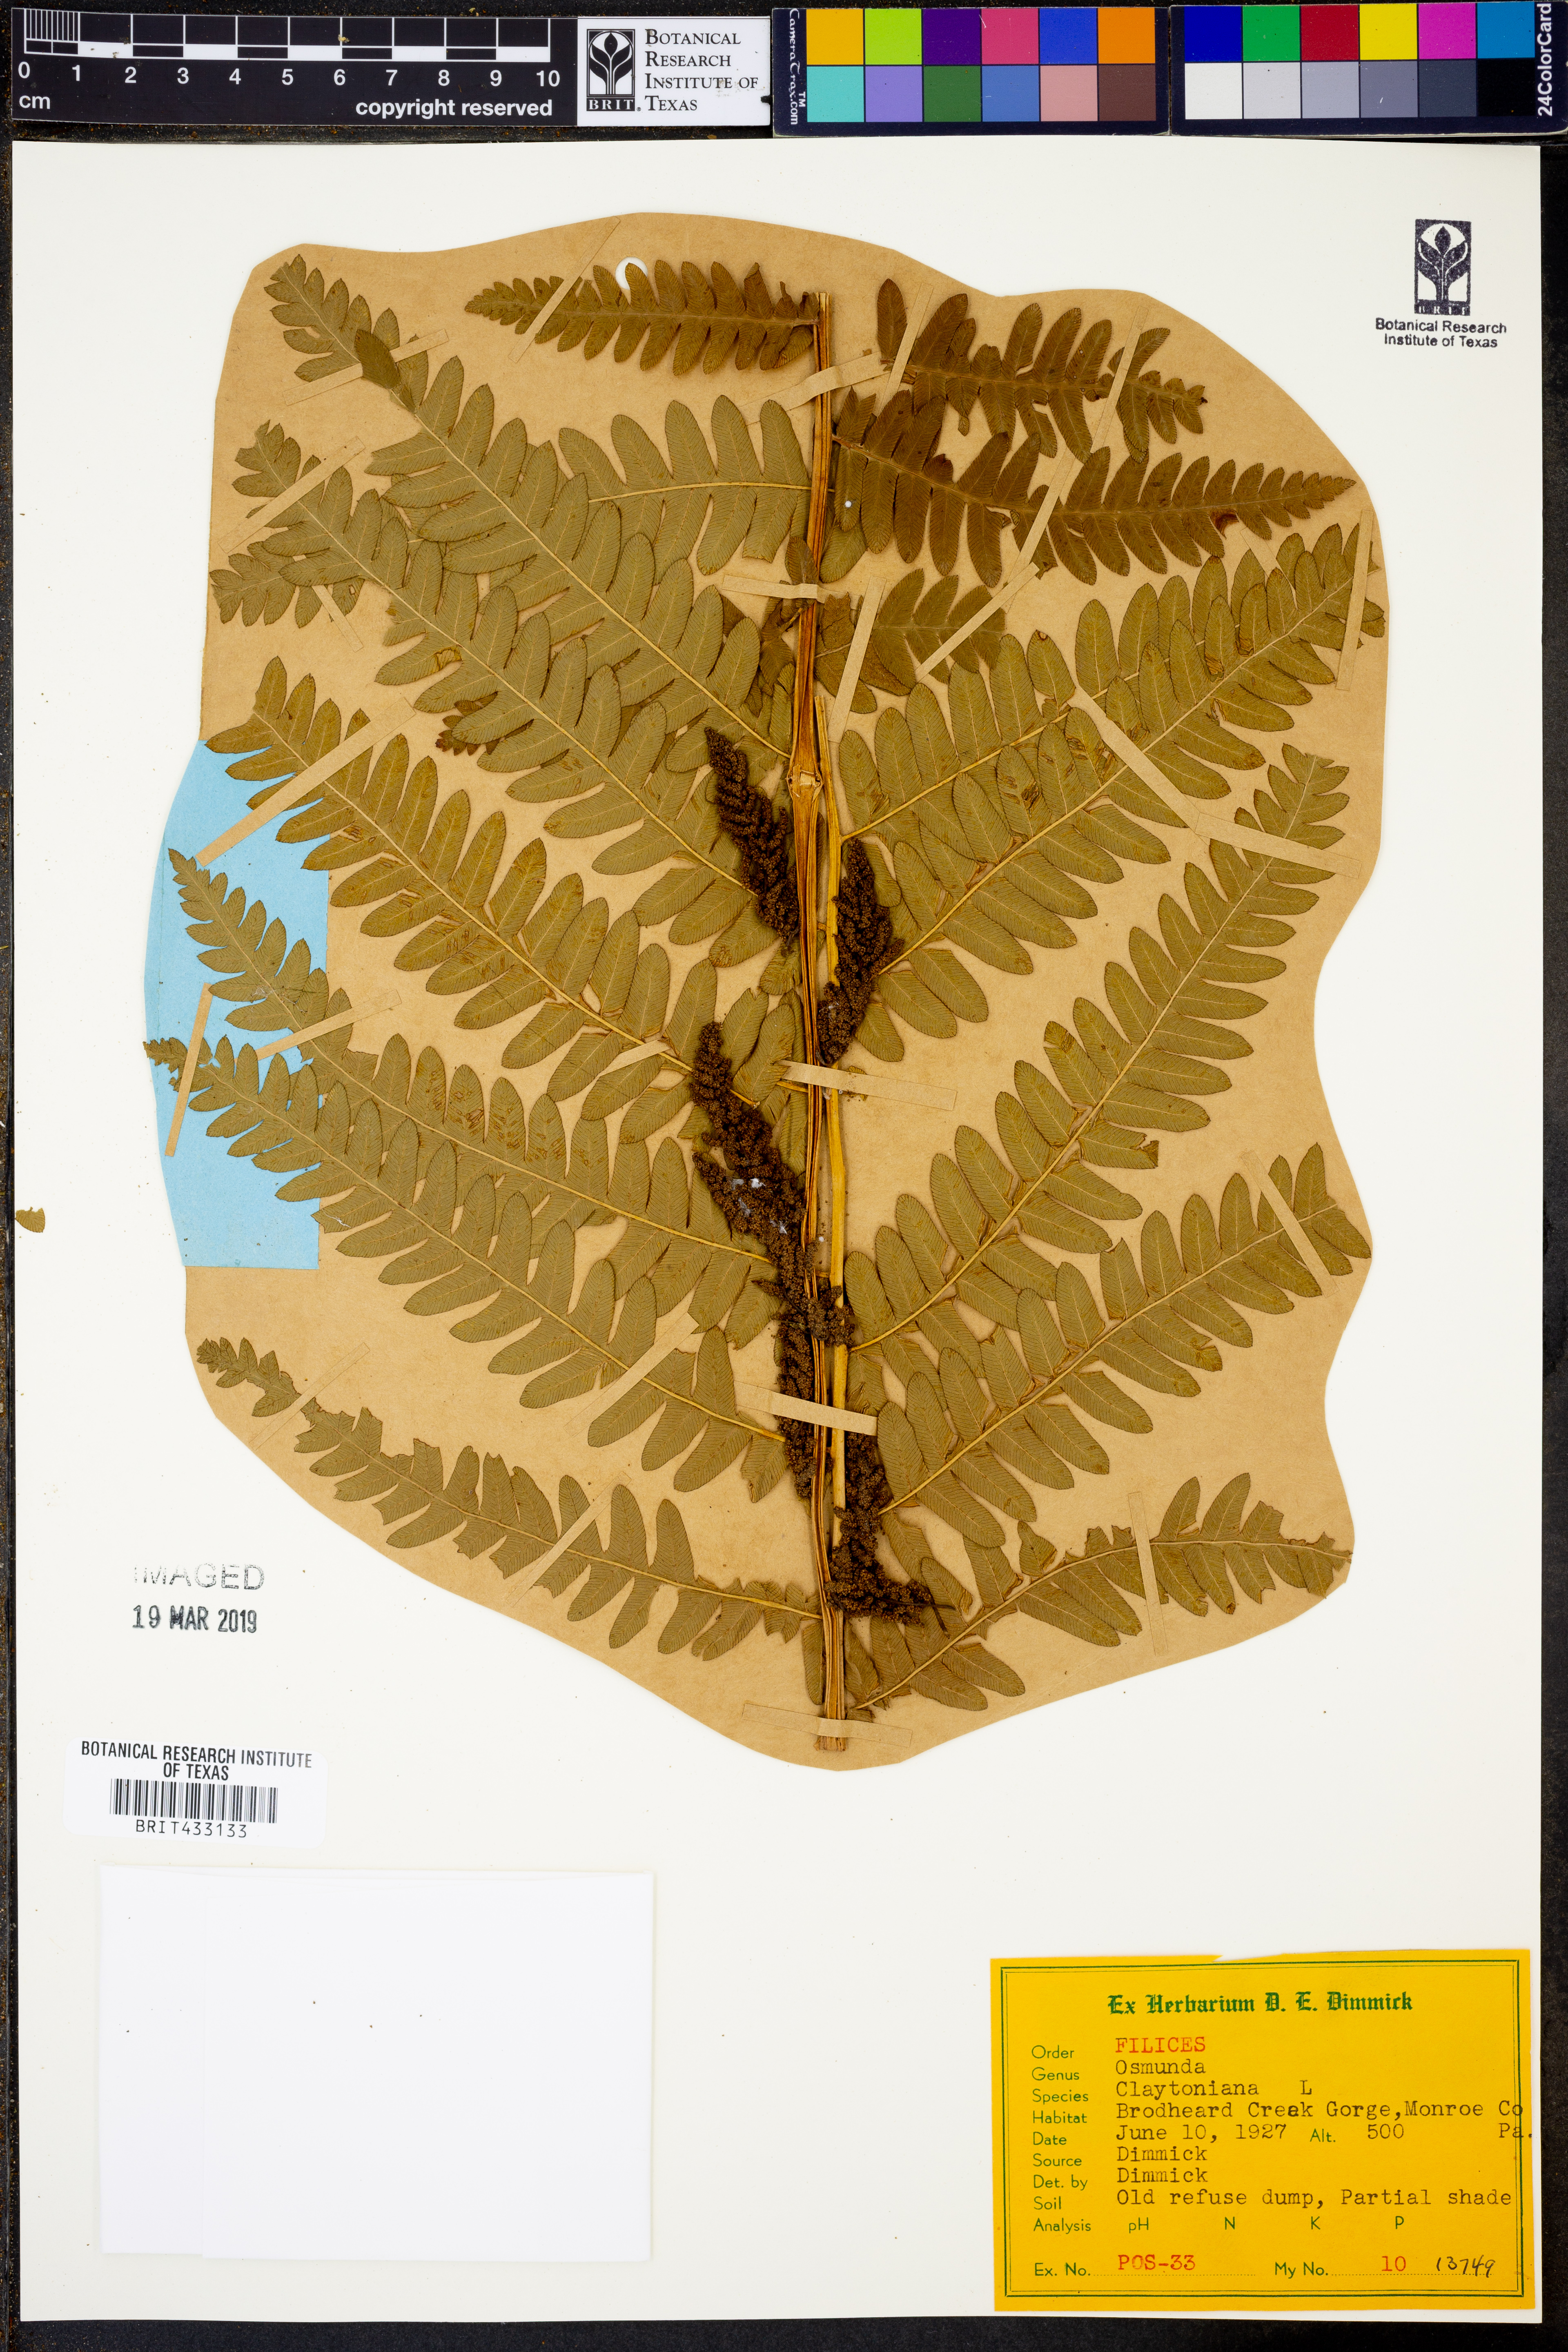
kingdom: Plantae
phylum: Tracheophyta
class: Polypodiopsida
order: Osmundales
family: Osmundaceae
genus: Claytosmunda
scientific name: Claytosmunda claytoniana
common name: Clayton's fern
